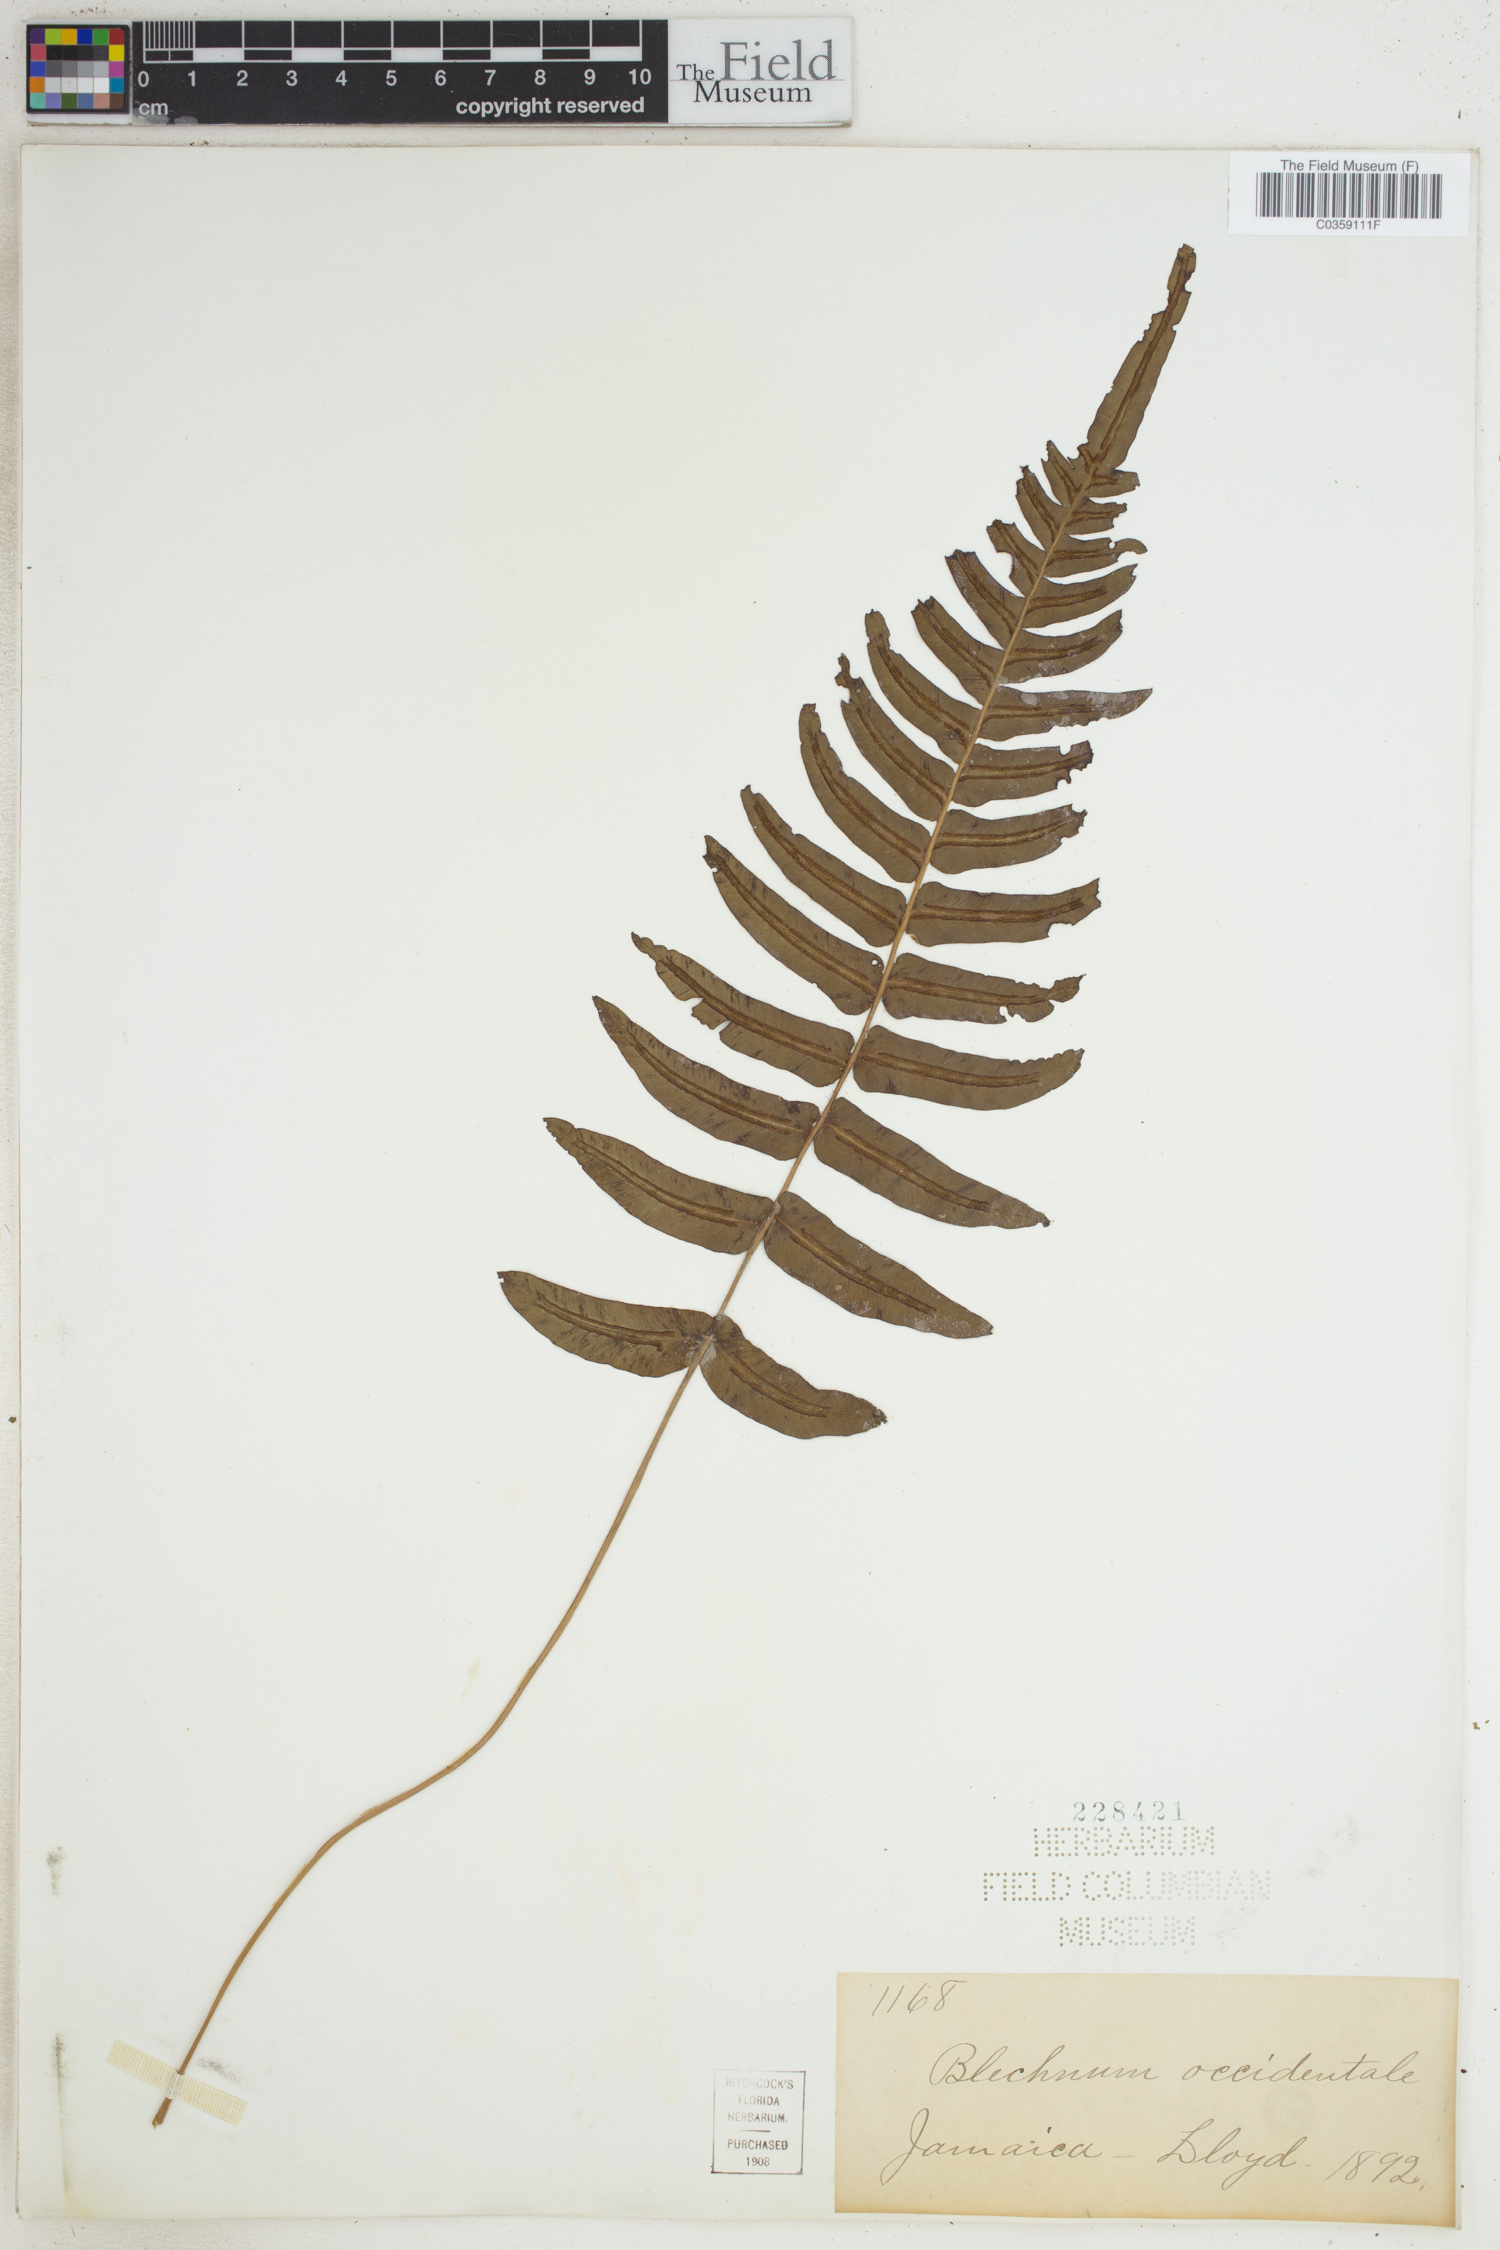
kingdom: Plantae
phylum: Tracheophyta
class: Polypodiopsida
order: Polypodiales
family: Blechnaceae
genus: Blechnum
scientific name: Blechnum occidentale
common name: Hammock fern
